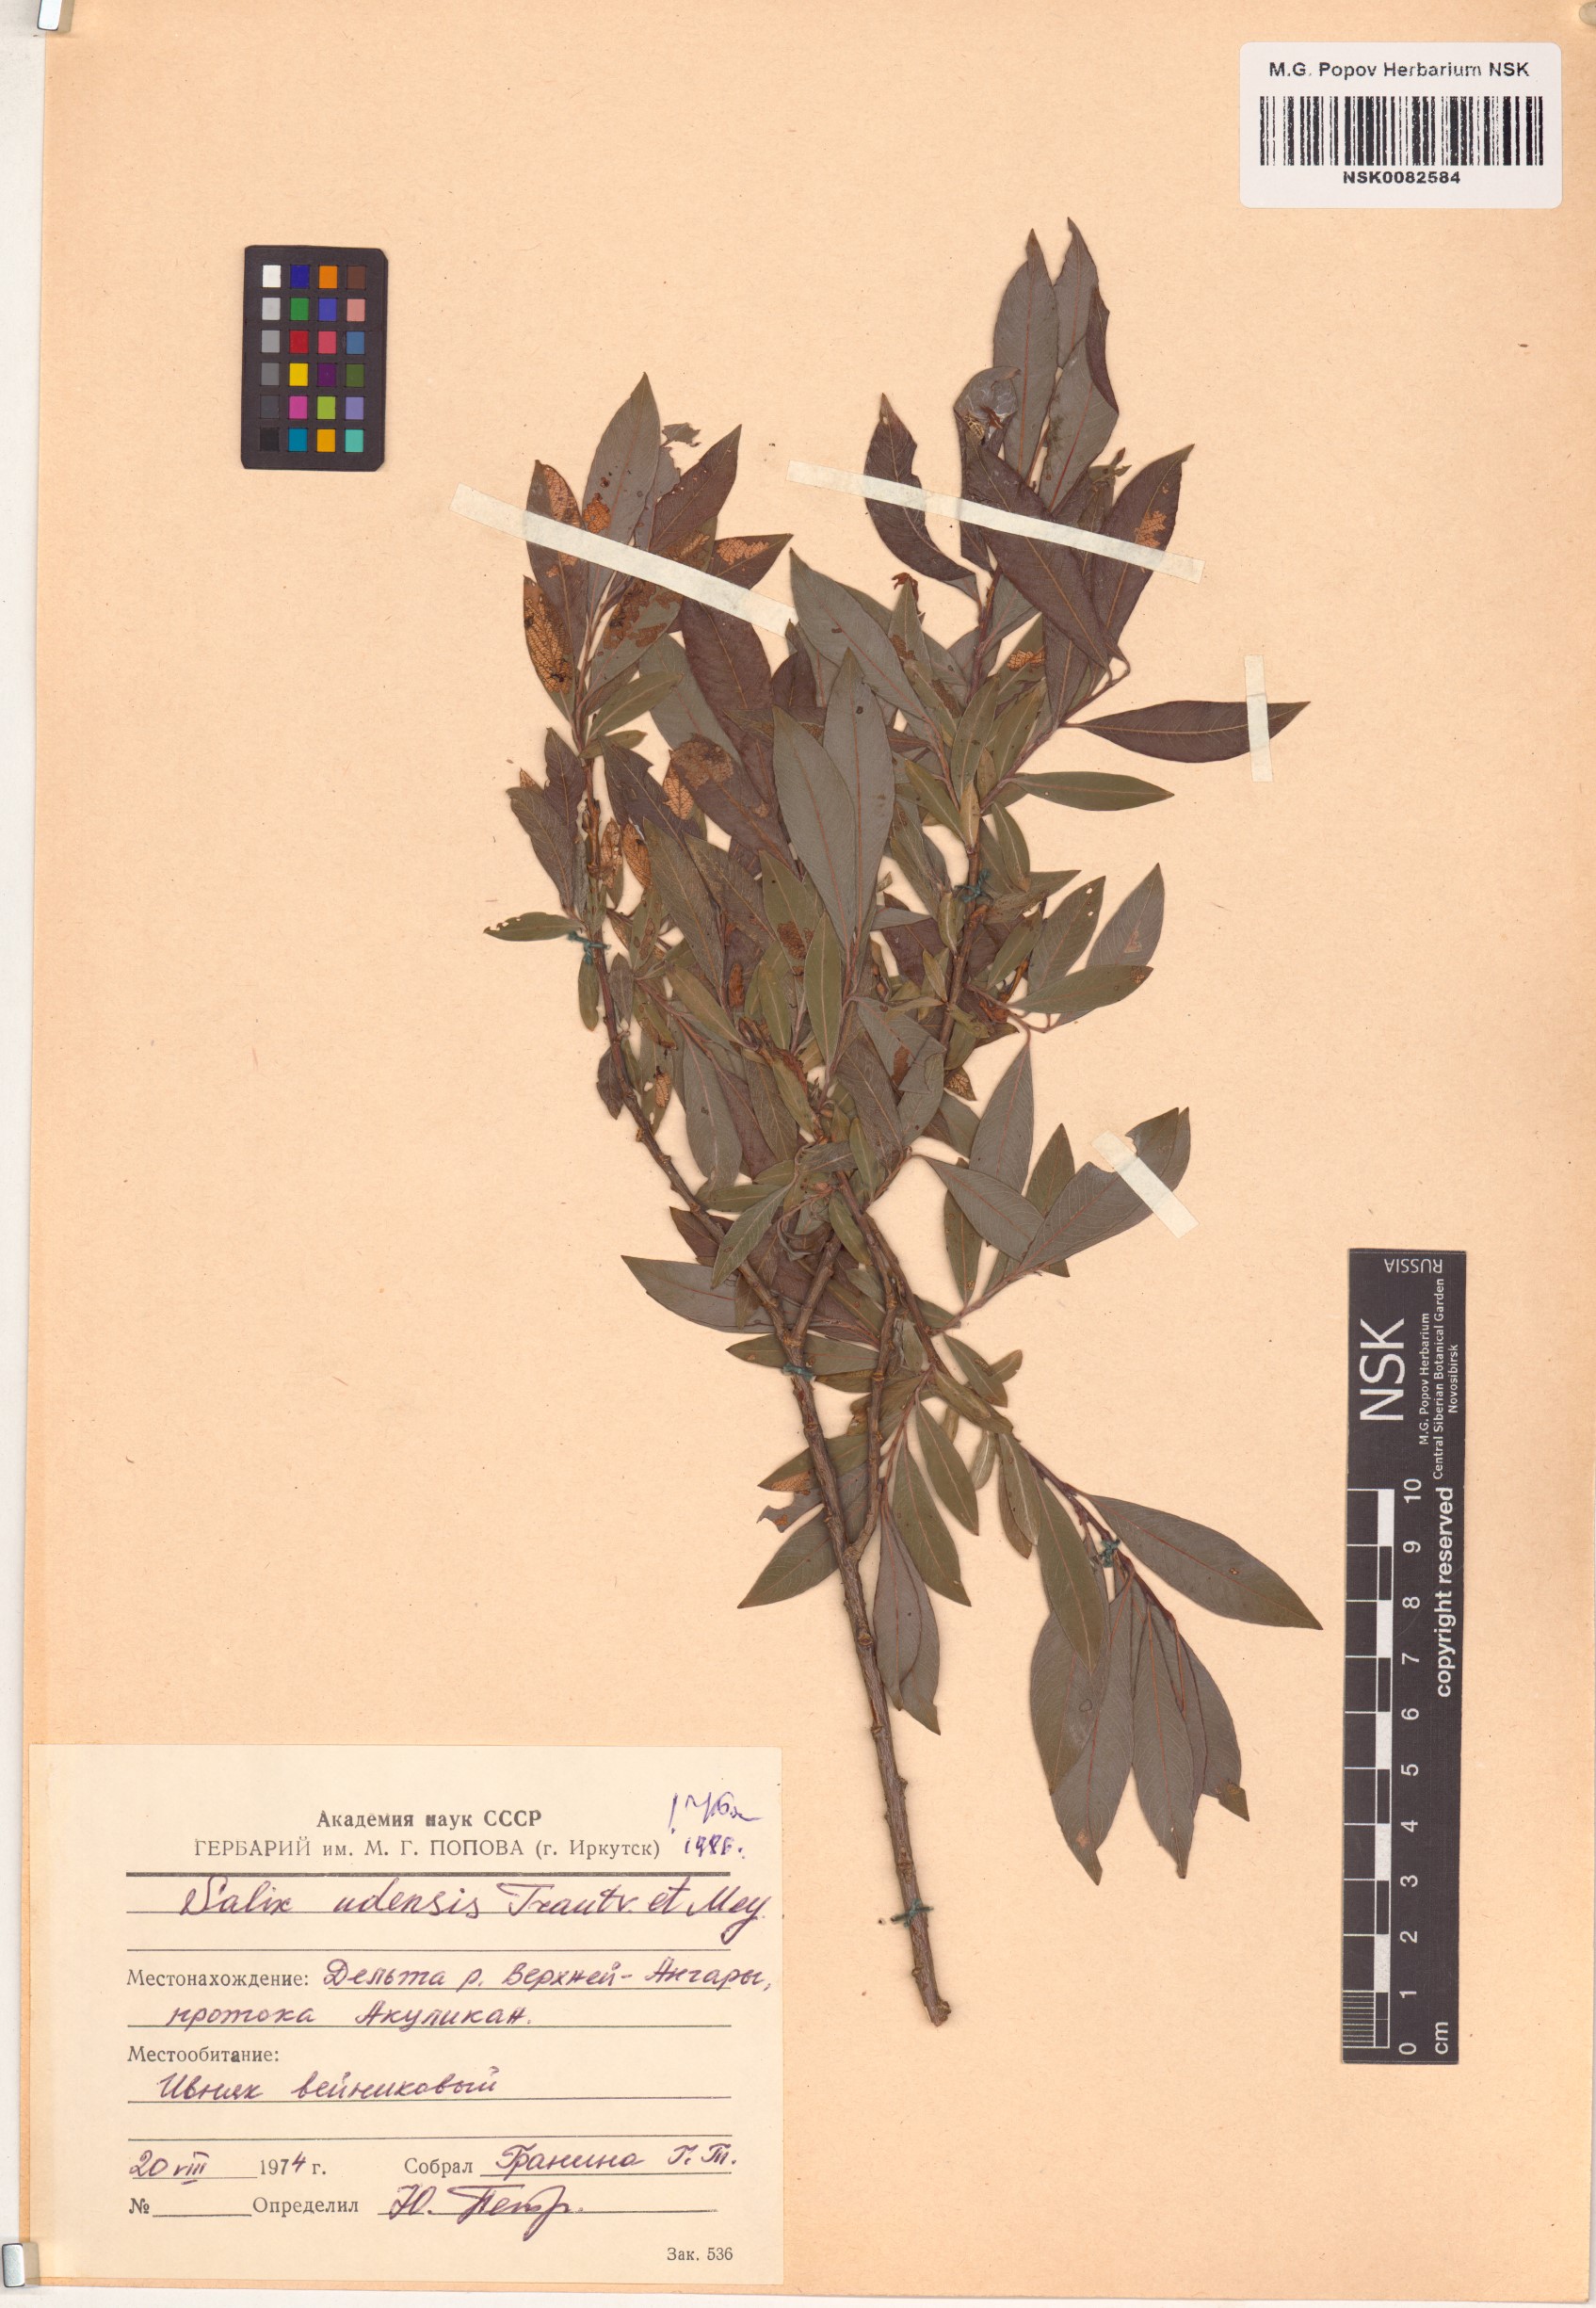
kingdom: Plantae
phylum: Tracheophyta
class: Magnoliopsida
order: Malpighiales
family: Salicaceae
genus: Salix
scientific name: Salix udensis
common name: Sachalin willow
